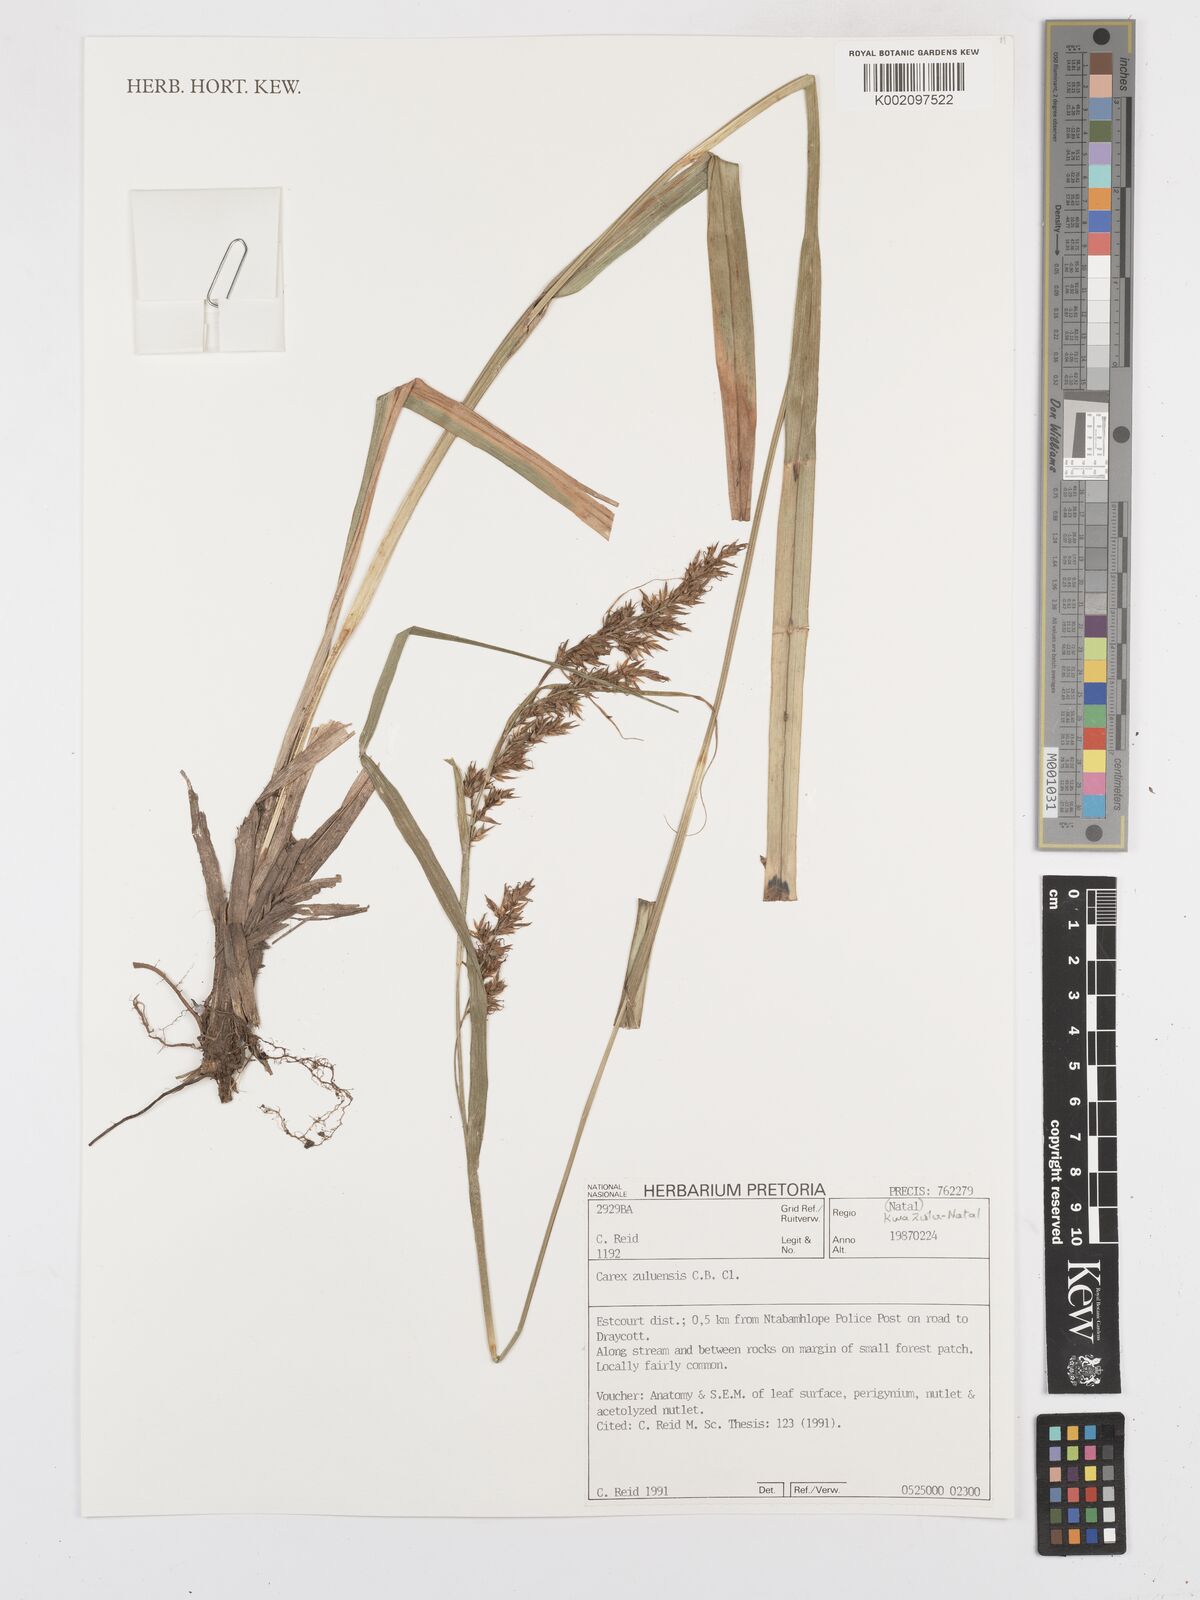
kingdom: Plantae
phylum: Tracheophyta
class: Liliopsida
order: Poales
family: Cyperaceae
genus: Carex
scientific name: Carex steudneri
